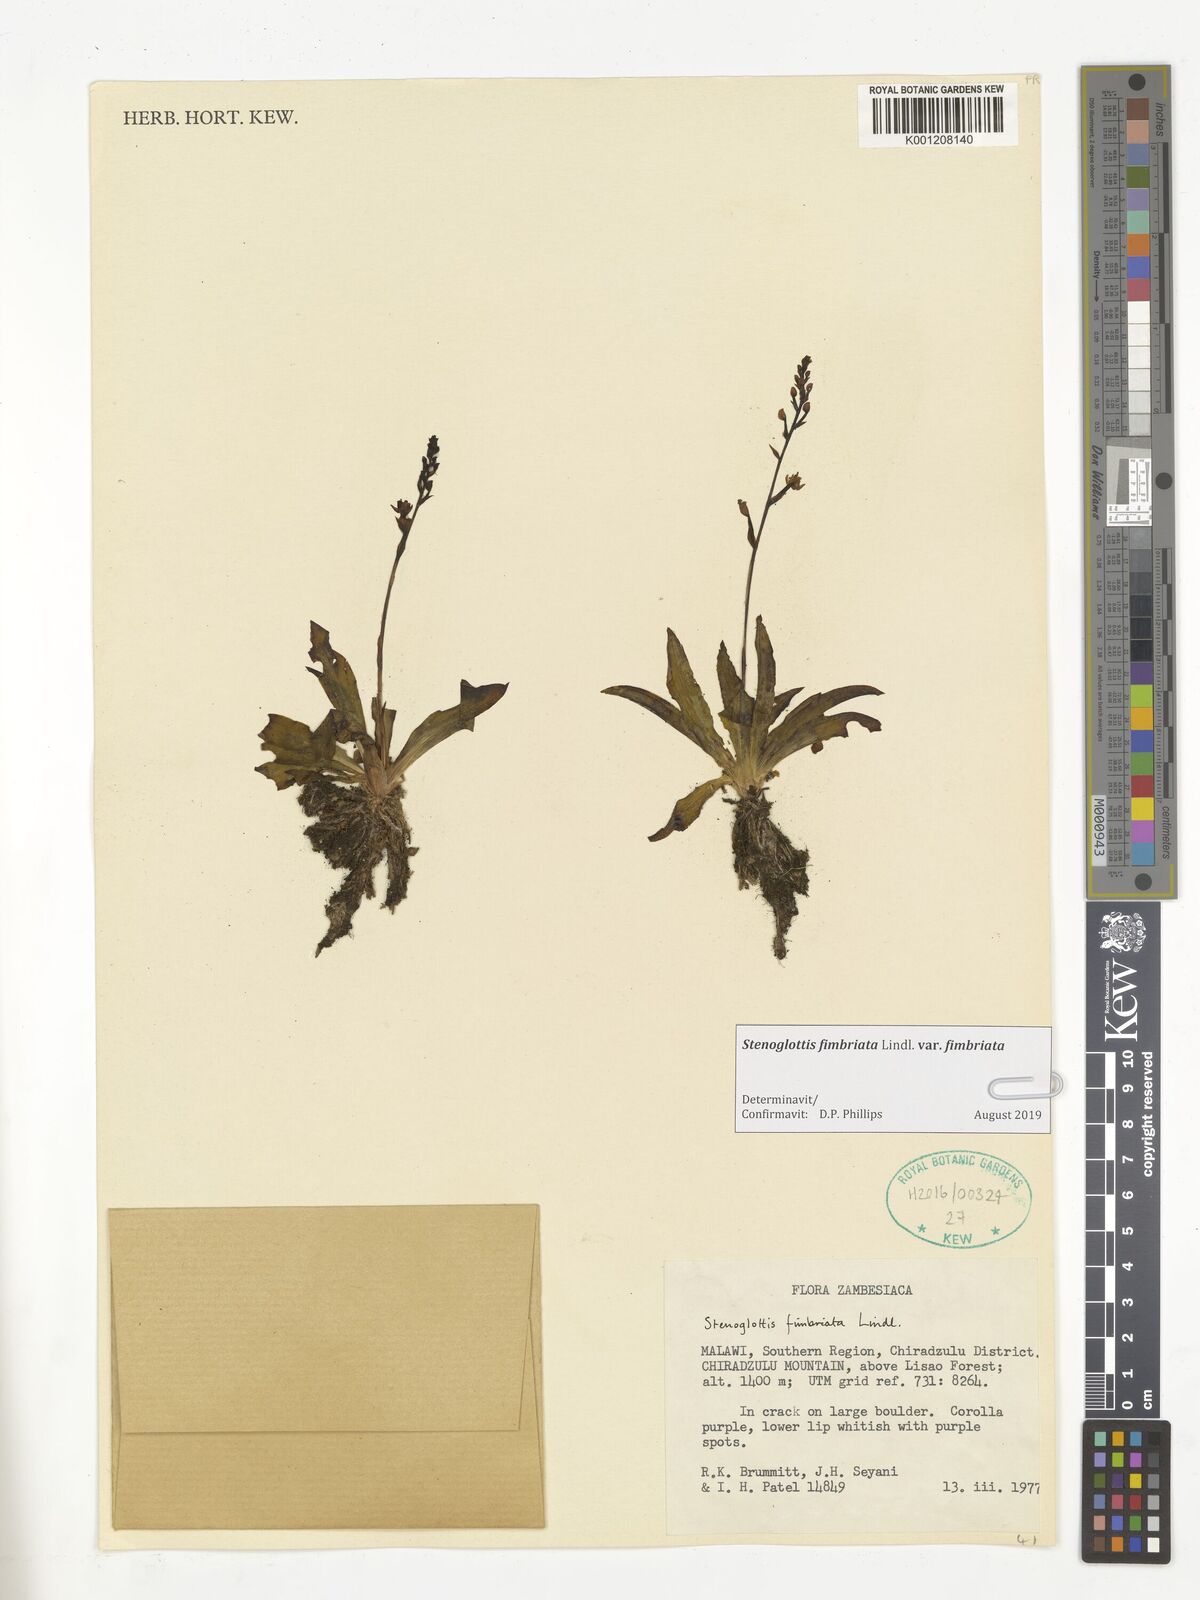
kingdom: Plantae
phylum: Tracheophyta
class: Liliopsida
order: Asparagales
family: Orchidaceae
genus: Stenoglottis
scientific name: Stenoglottis fimbriata
